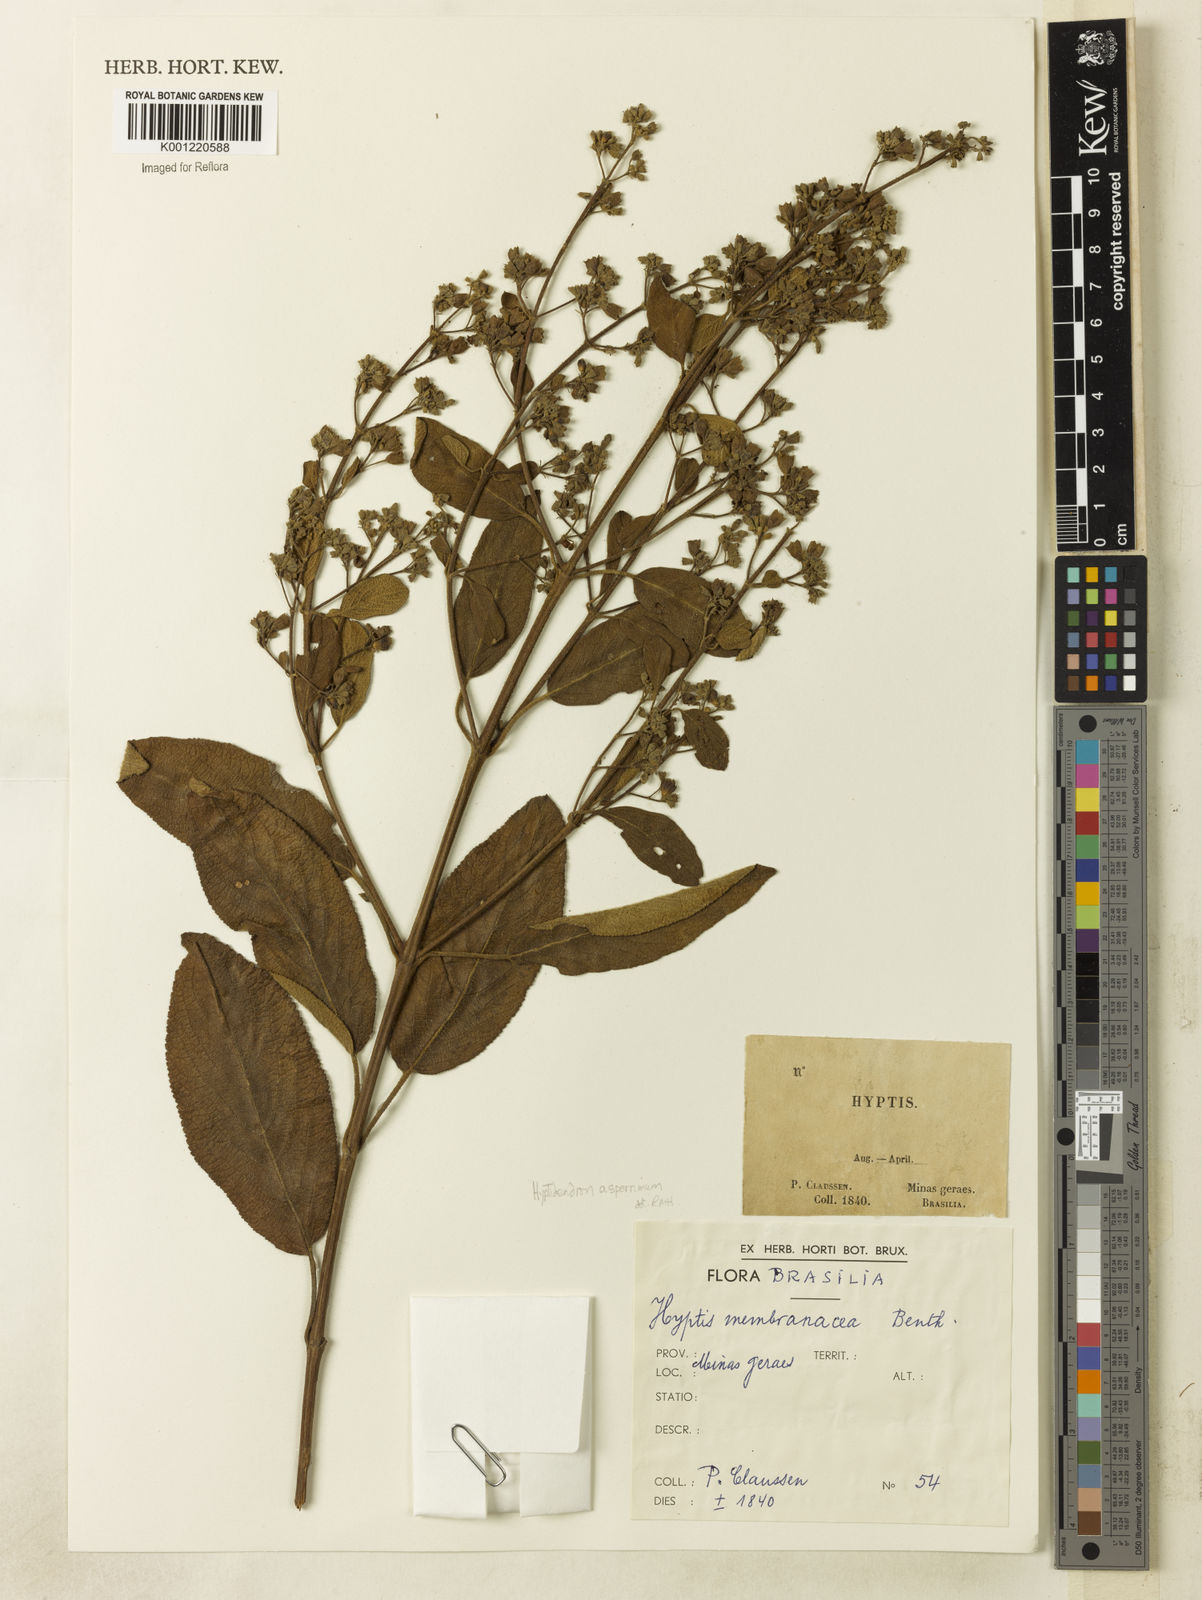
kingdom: Plantae
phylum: Tracheophyta
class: Magnoliopsida
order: Lamiales
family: Lamiaceae
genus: Hyptidendron
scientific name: Hyptidendron asperrimum
